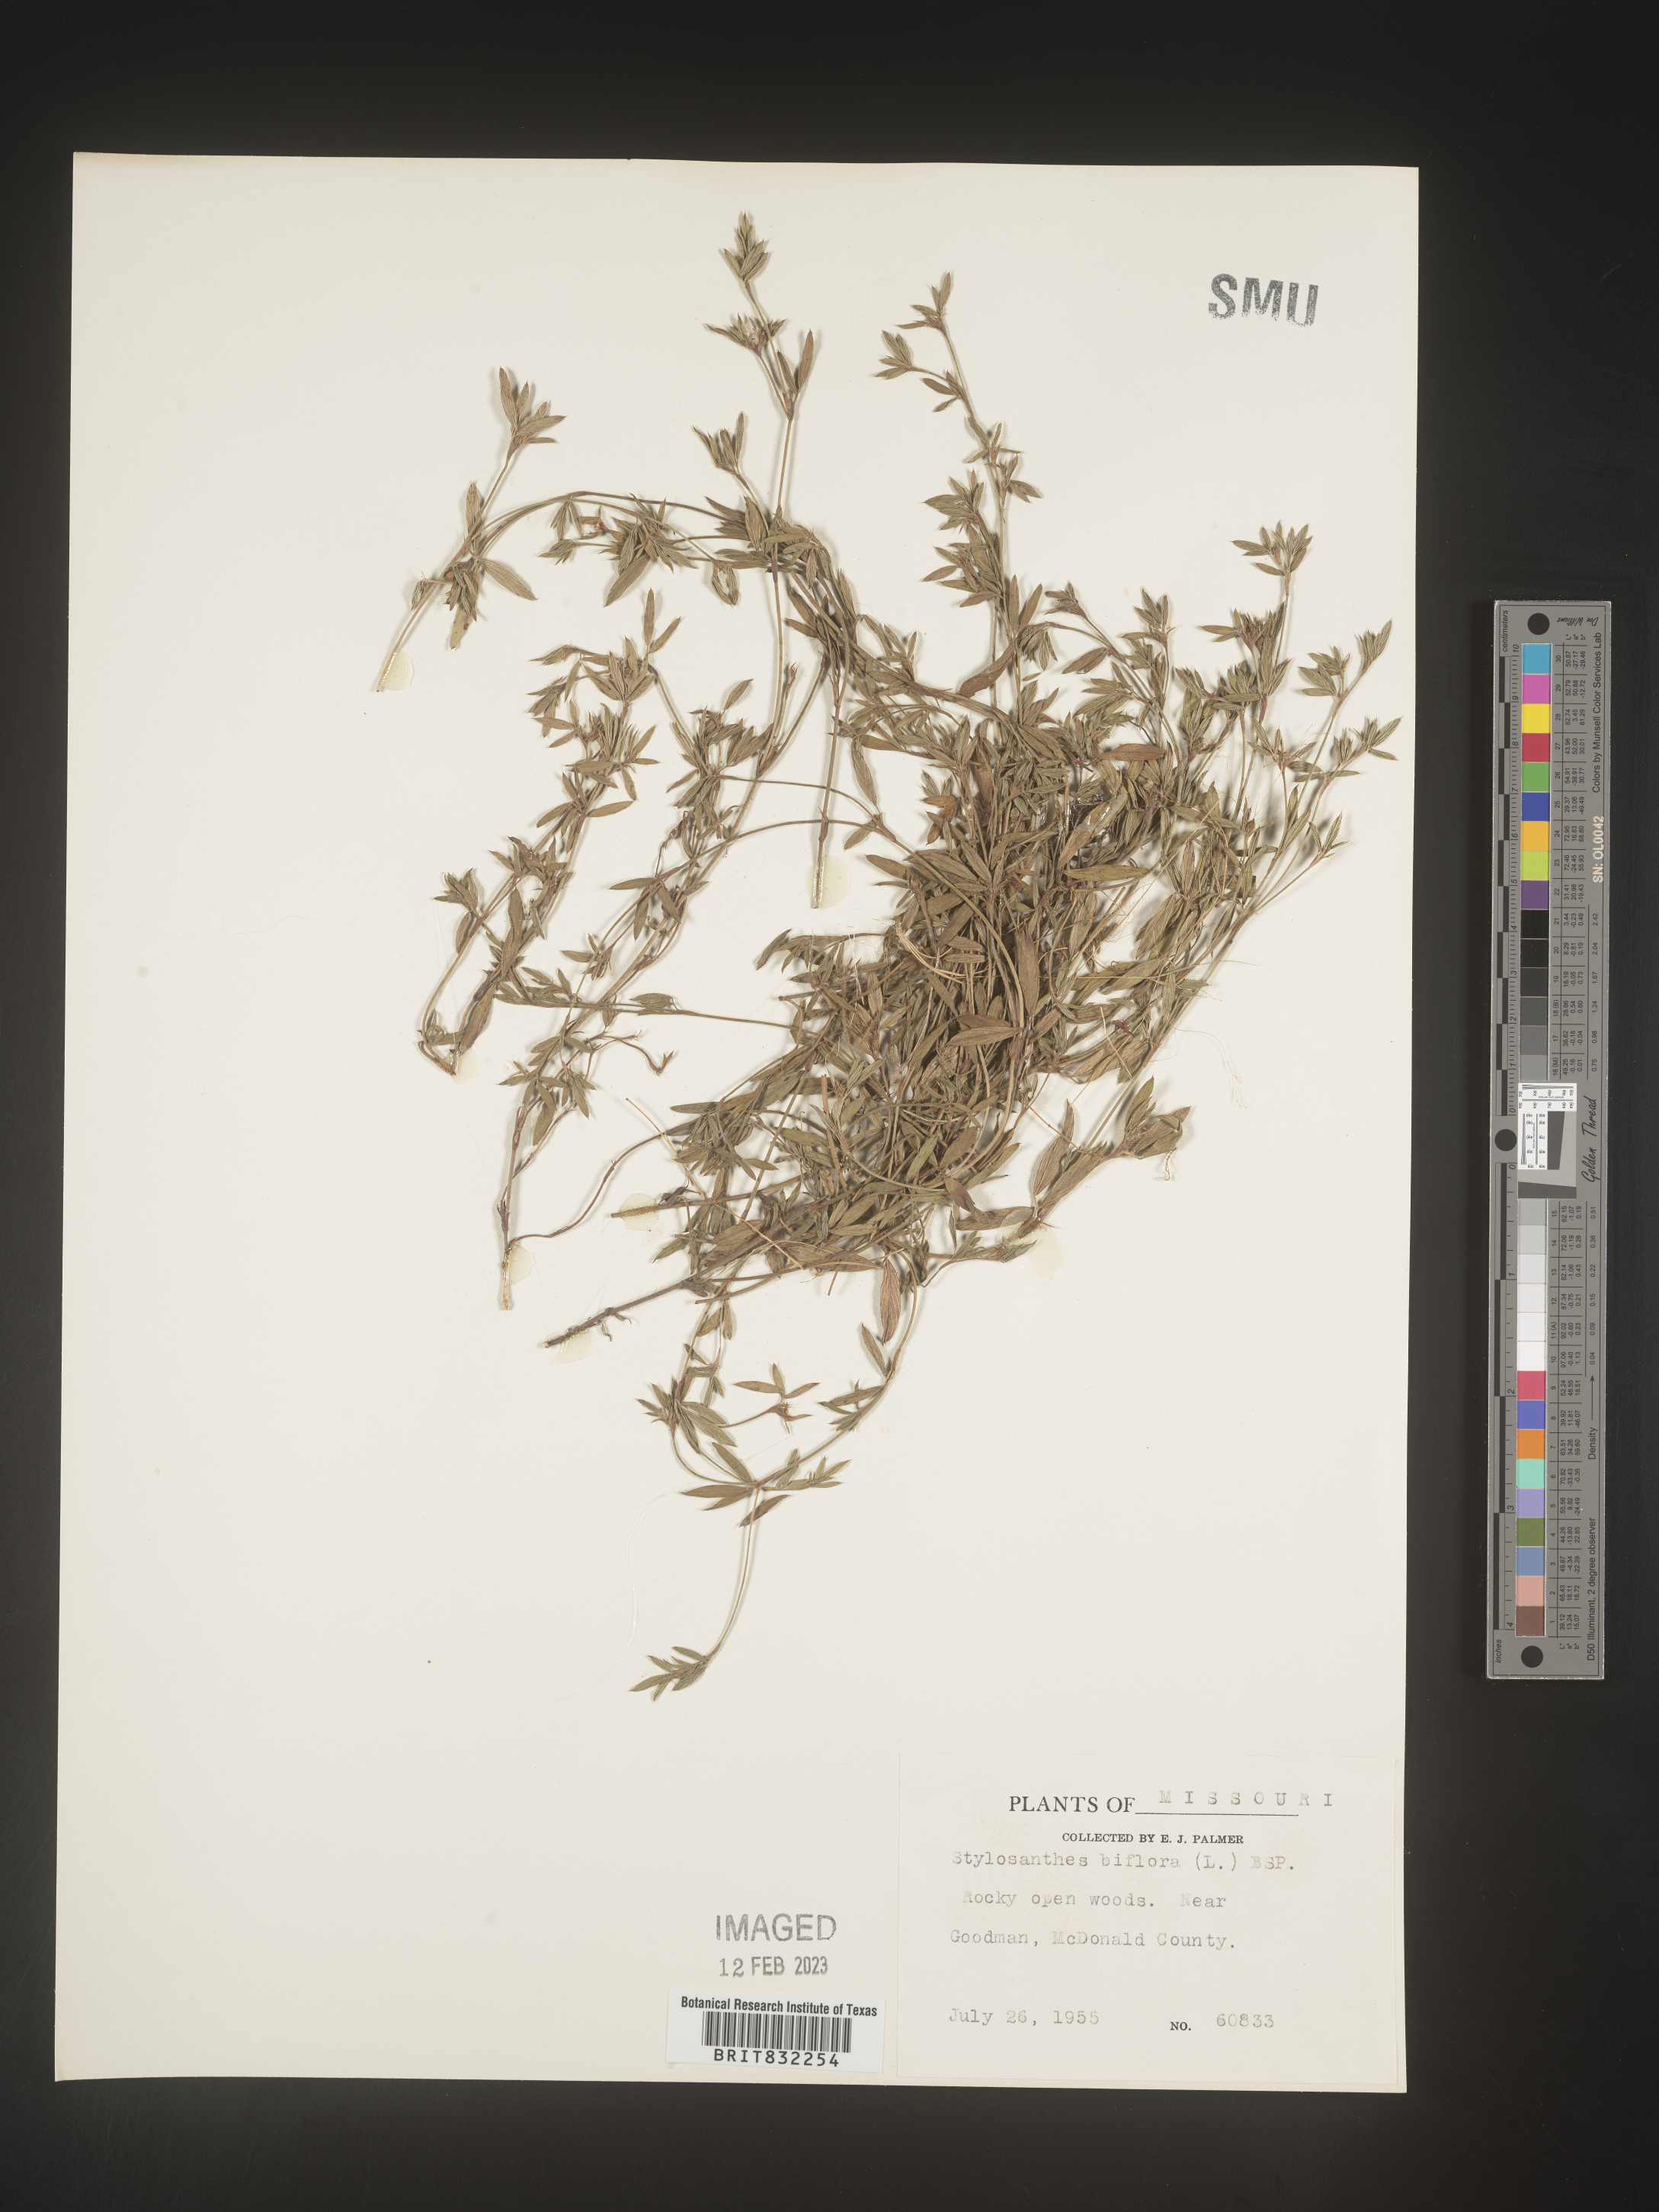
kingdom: Plantae
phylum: Tracheophyta
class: Magnoliopsida
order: Fabales
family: Fabaceae
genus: Stylosanthes
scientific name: Stylosanthes biflora
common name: Two-flower pencil-flower
